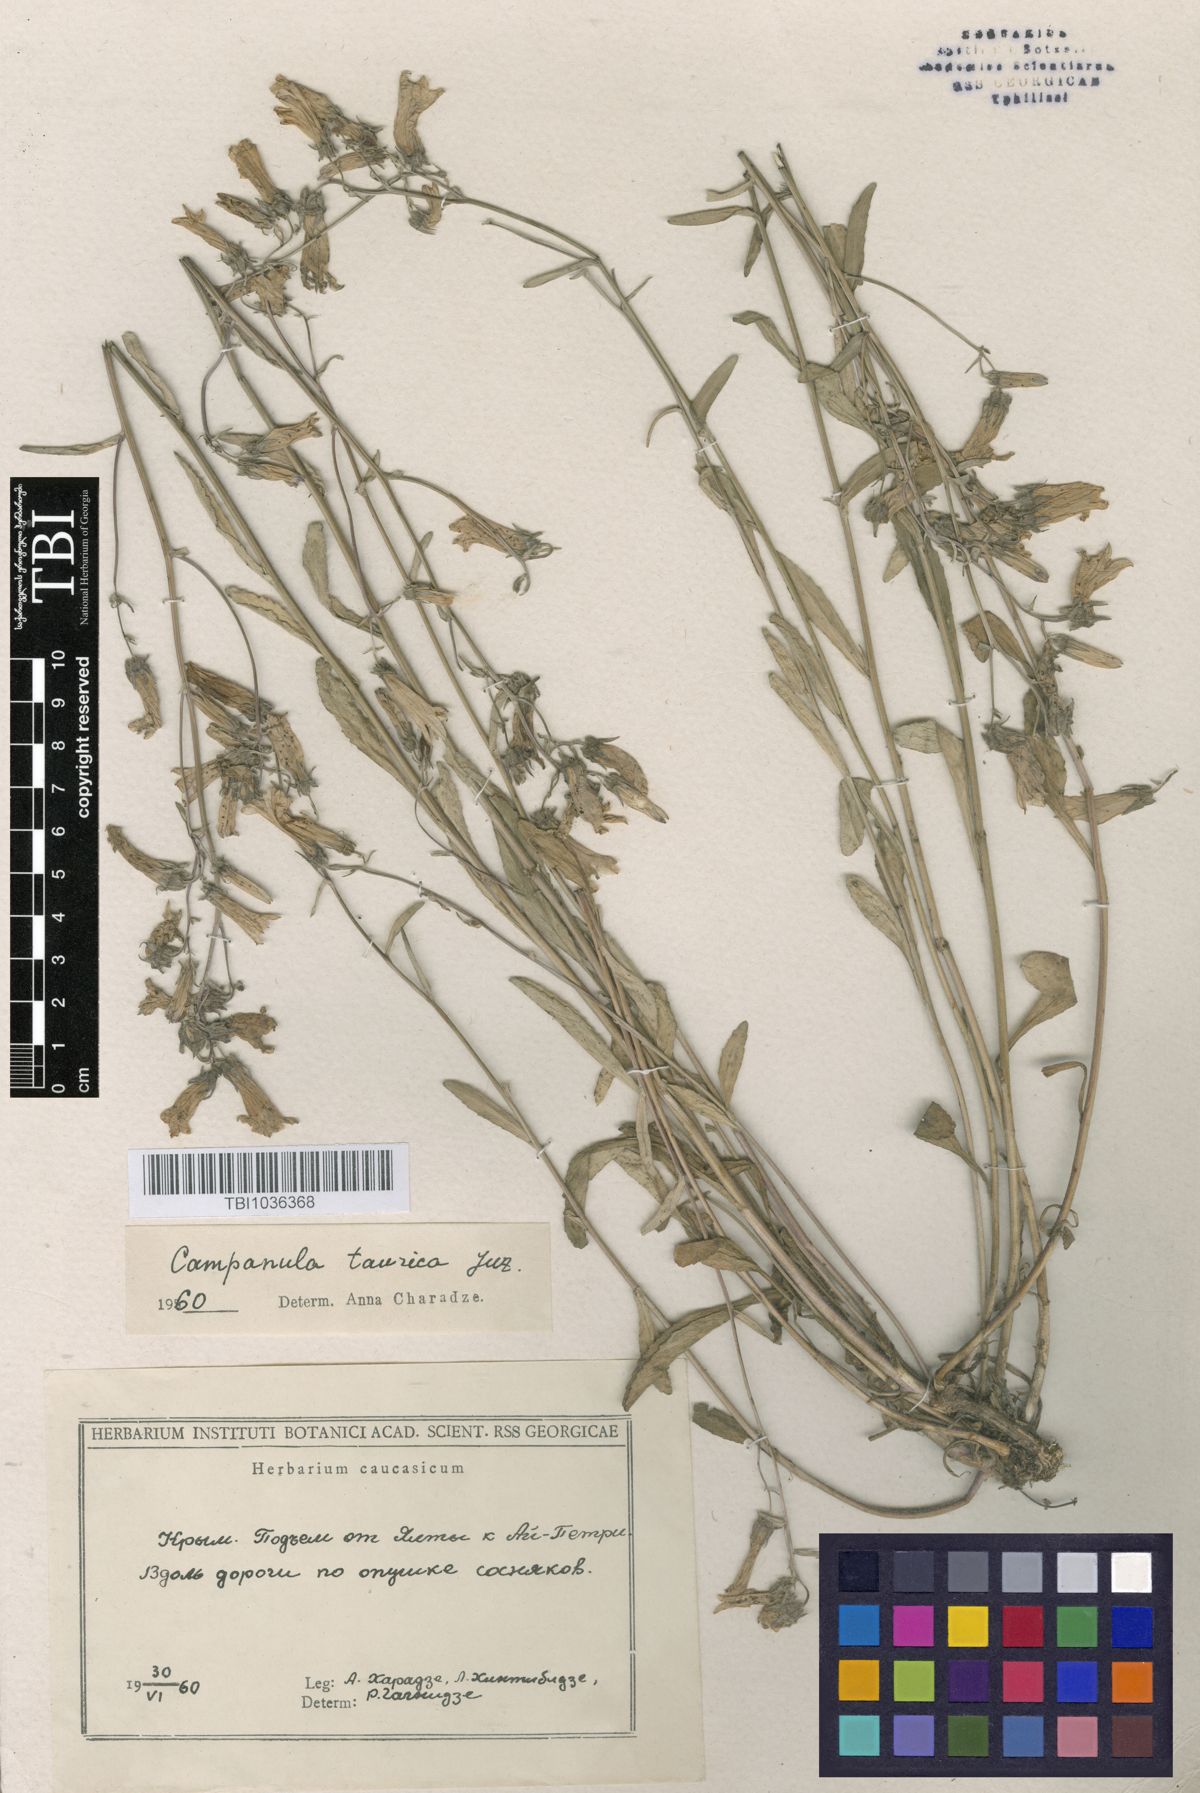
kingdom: Plantae
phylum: Tracheophyta
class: Magnoliopsida
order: Asterales
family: Campanulaceae
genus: Campanula
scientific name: Campanula sibirica
